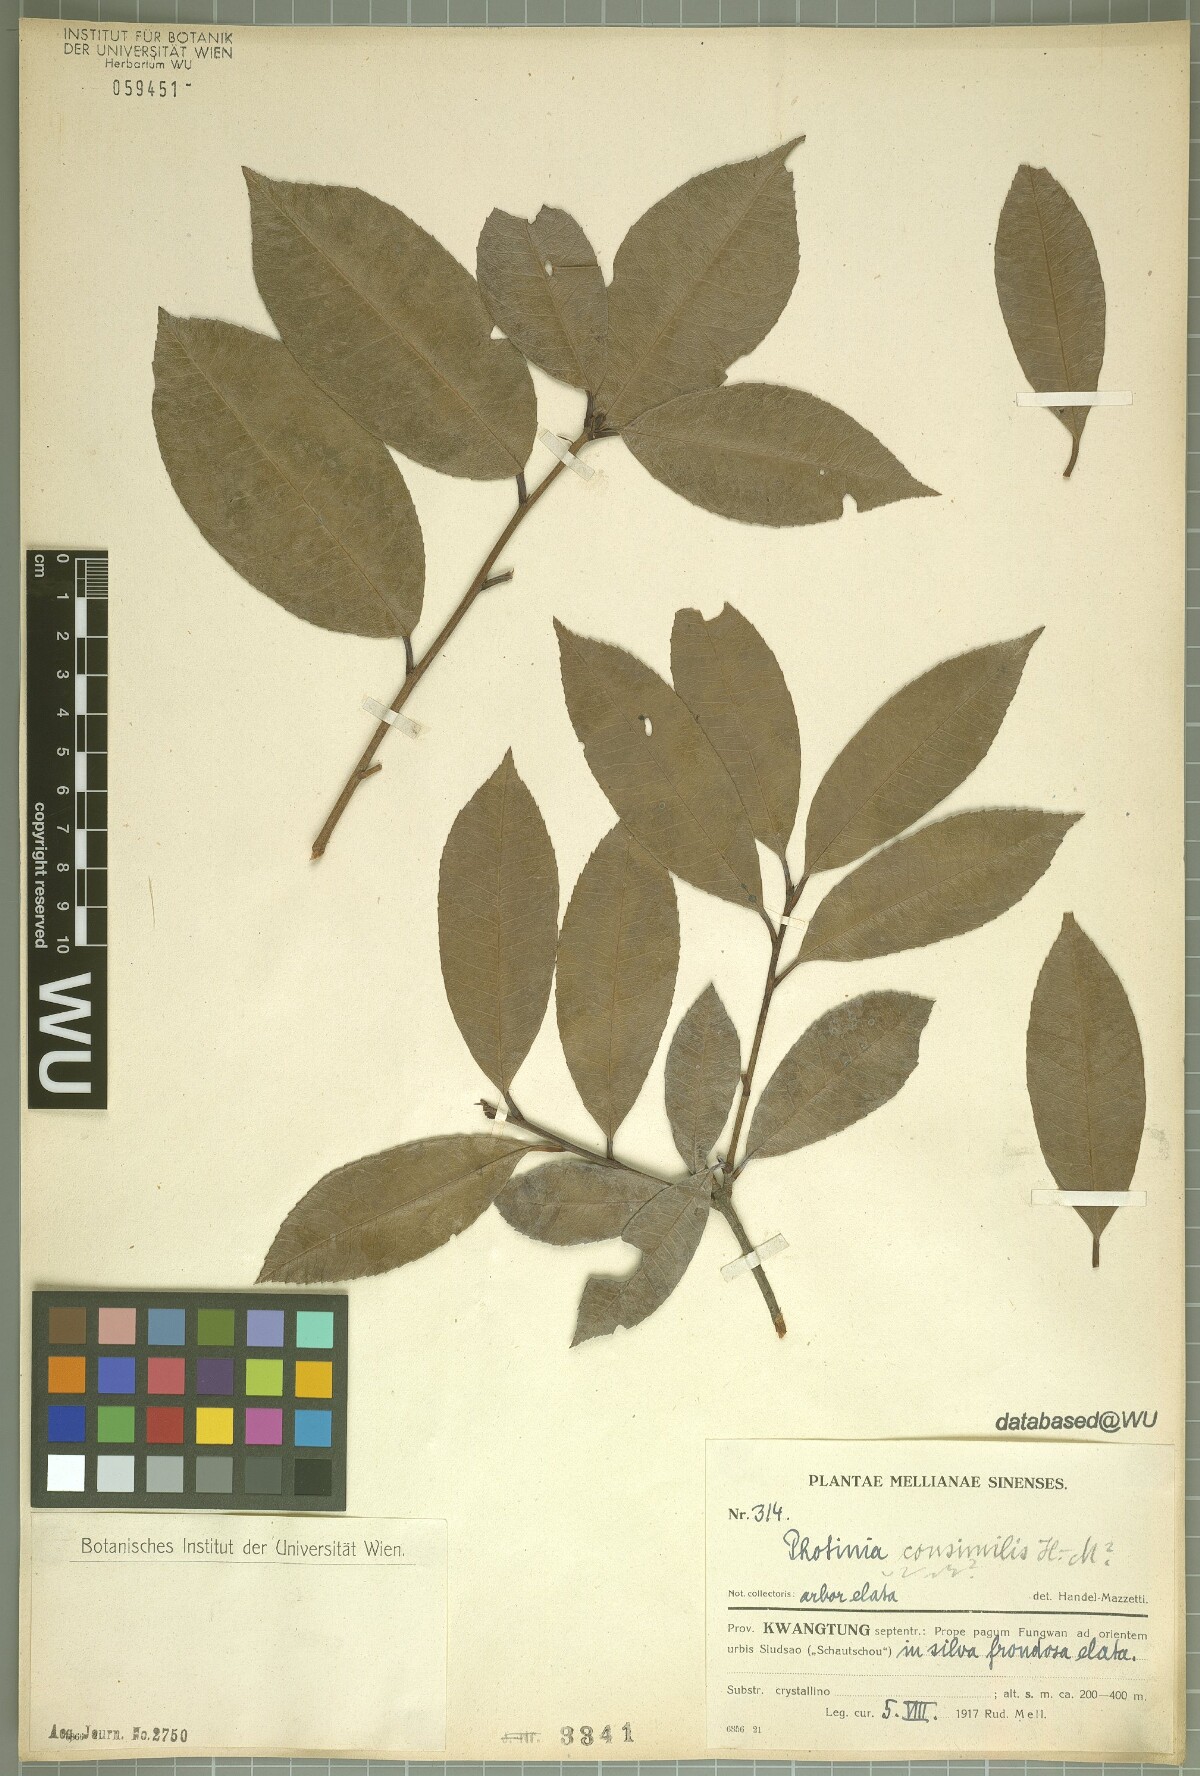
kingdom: Plantae
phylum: Tracheophyta
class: Magnoliopsida
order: Rosales
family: Rosaceae
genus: Photinia
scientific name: Photinia prunifolia
